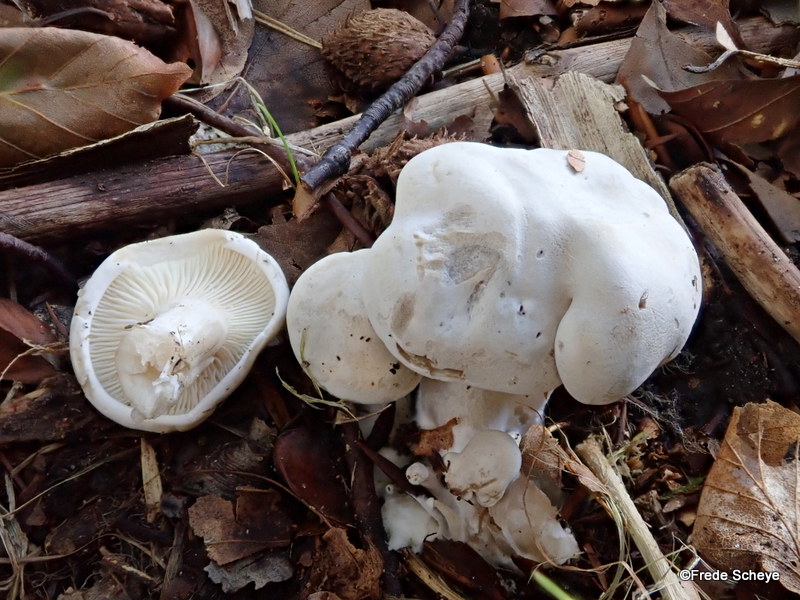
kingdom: Fungi
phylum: Basidiomycota
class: Agaricomycetes
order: Agaricales
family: Entolomataceae
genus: Clitopilus
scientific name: Clitopilus prunulus
